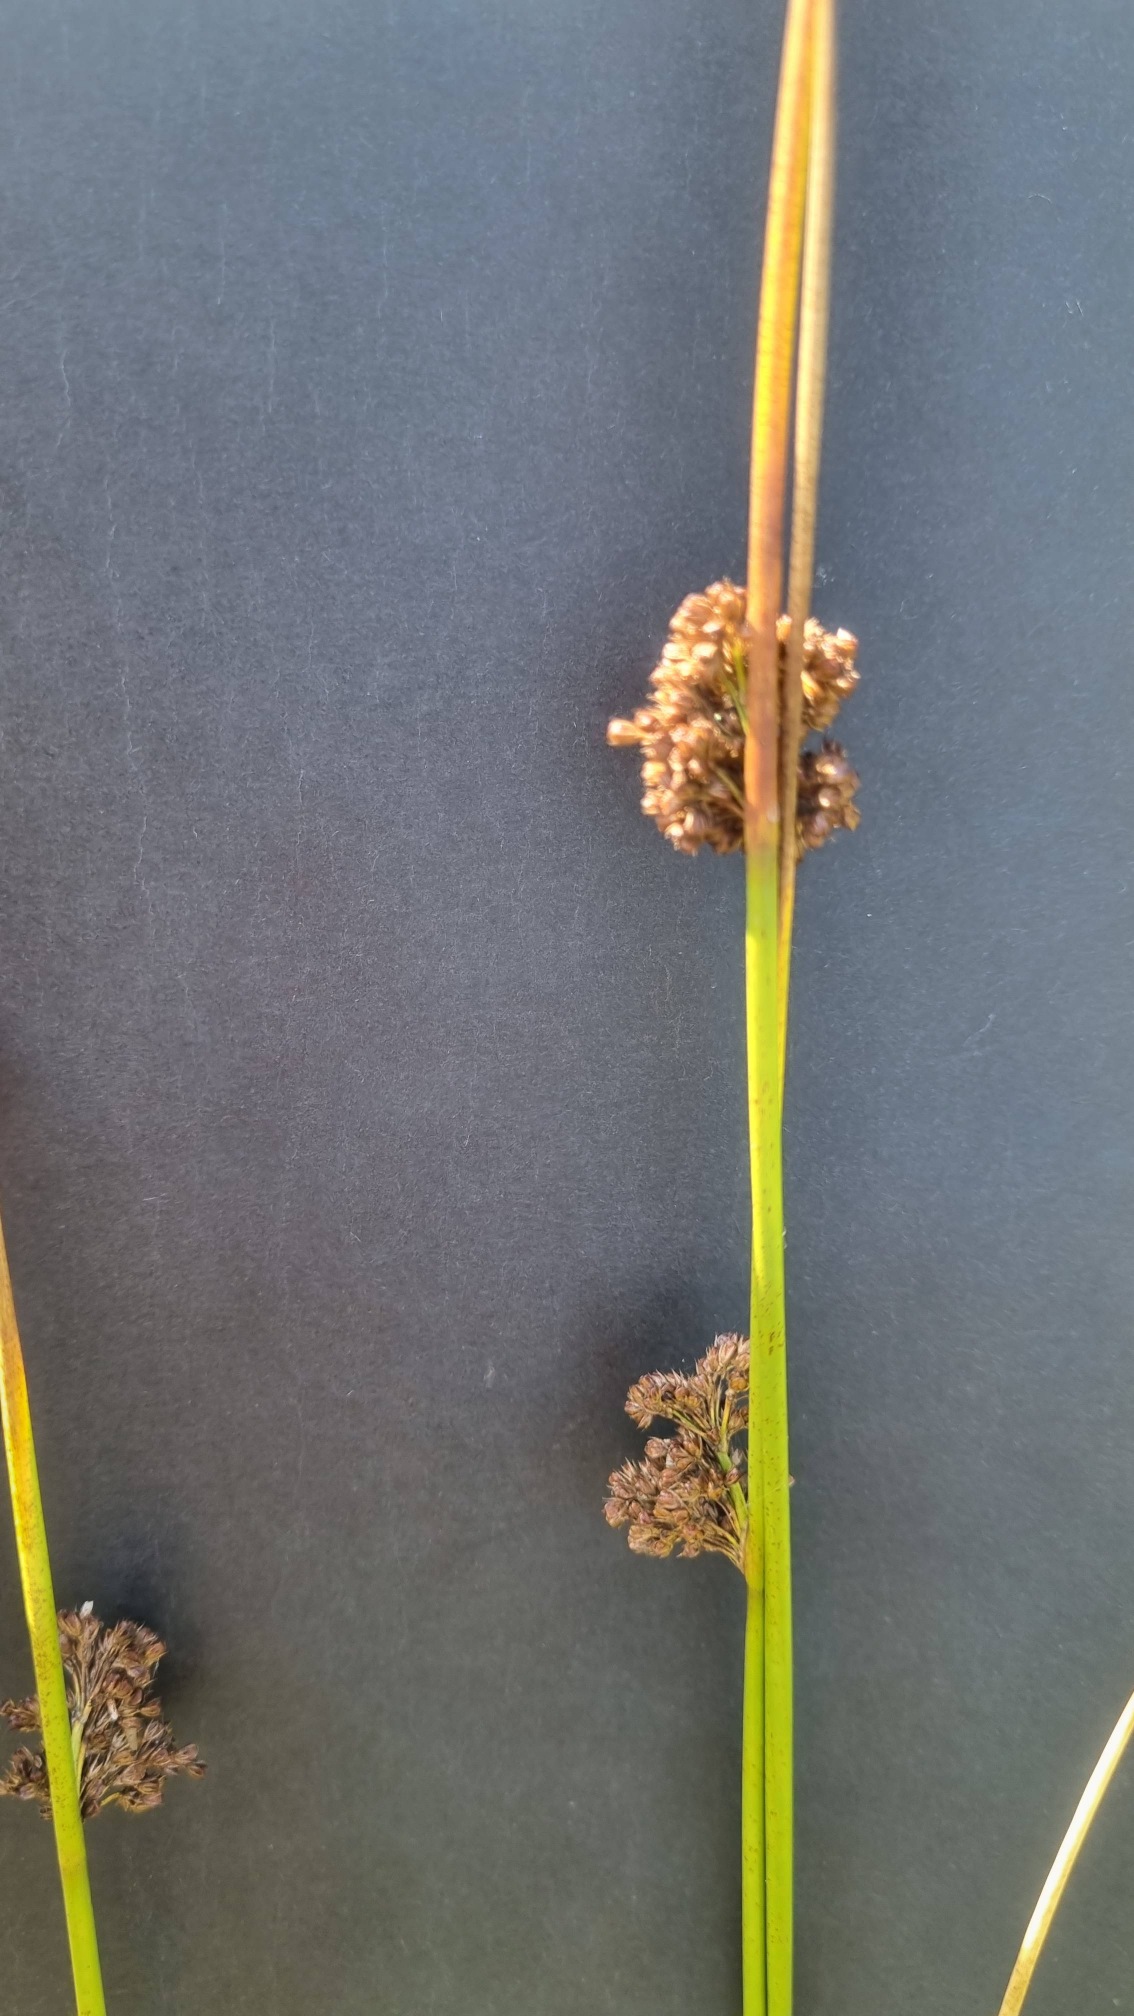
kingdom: Plantae
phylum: Tracheophyta
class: Liliopsida
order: Poales
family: Juncaceae
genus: Juncus
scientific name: Juncus effusus
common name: Lyse-siv
